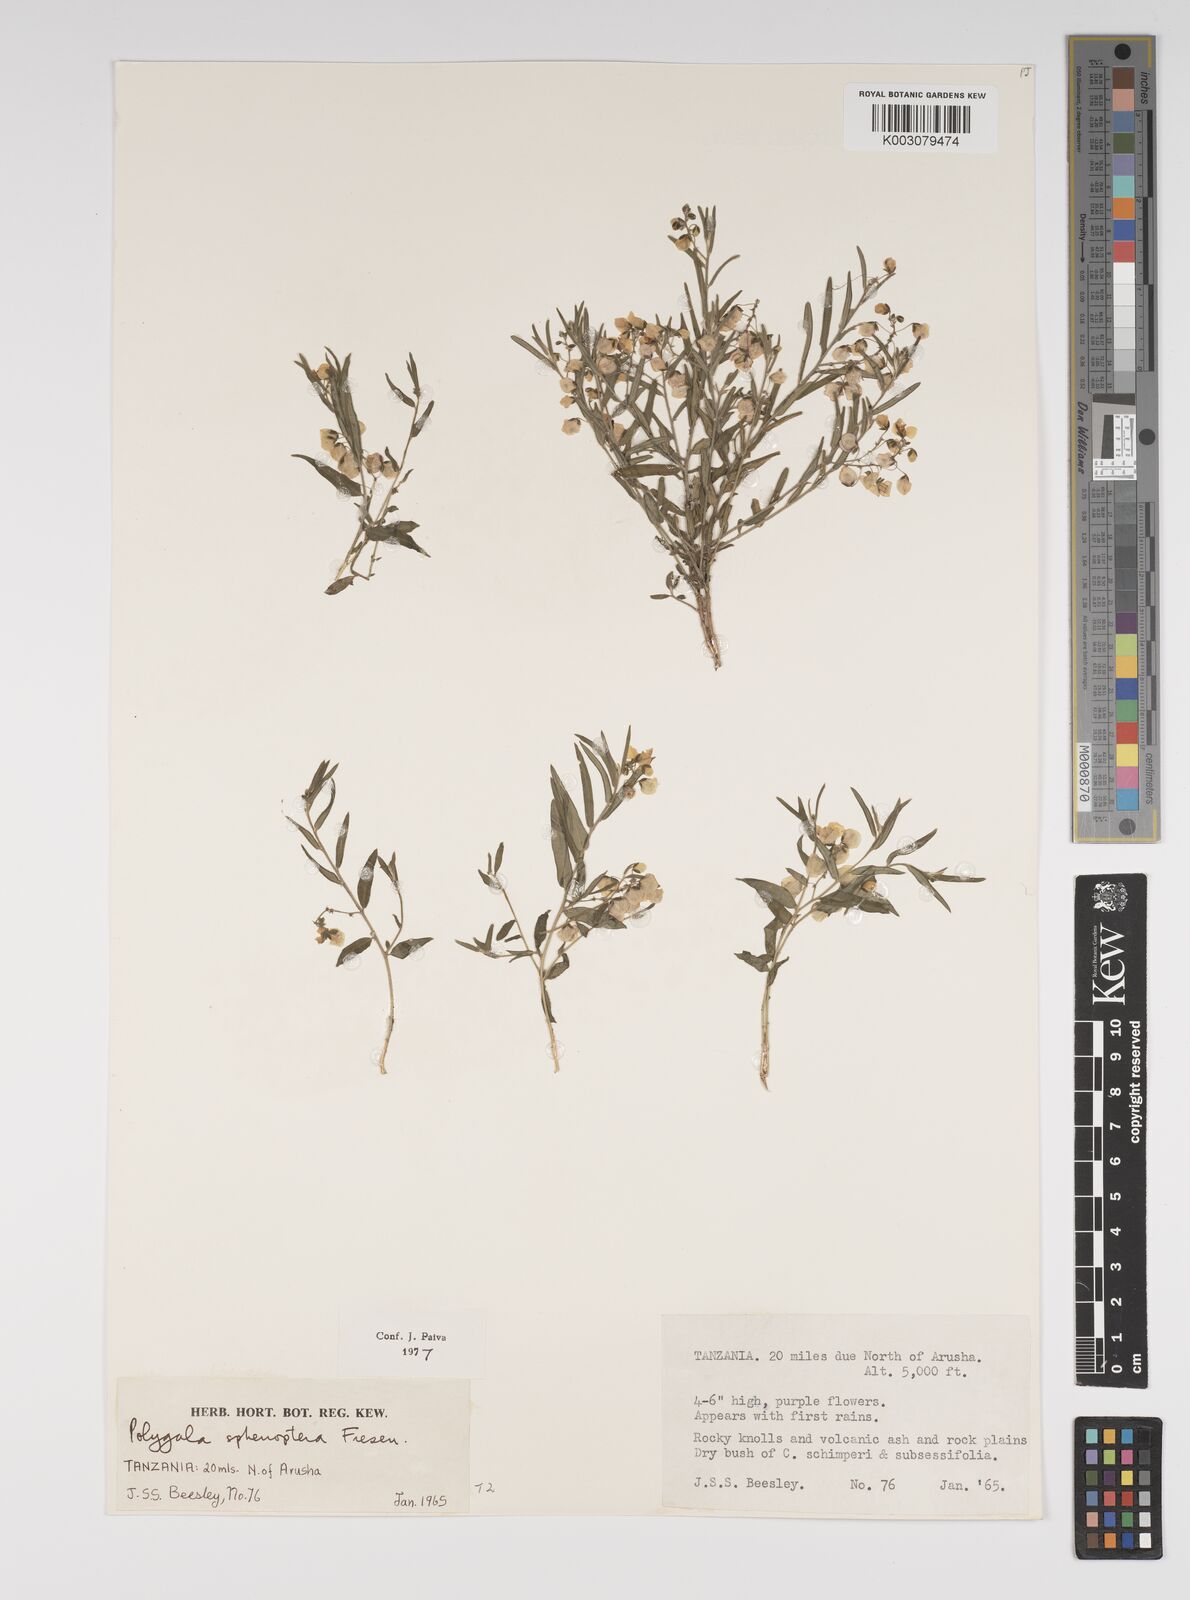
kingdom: Plantae
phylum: Tracheophyta
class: Magnoliopsida
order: Fabales
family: Polygalaceae
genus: Polygala
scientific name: Polygala sphenoptera
